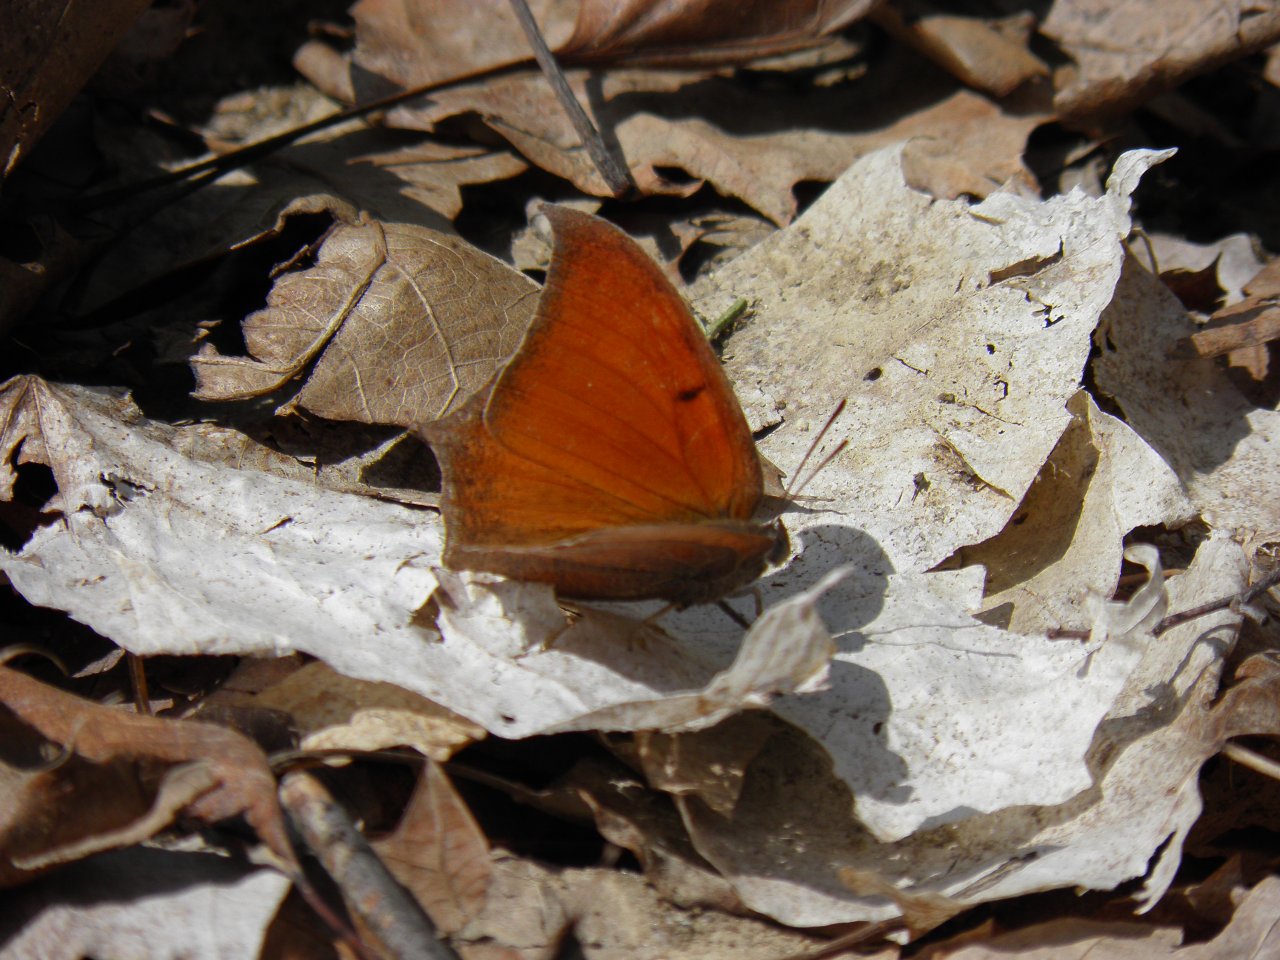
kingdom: Animalia
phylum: Arthropoda
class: Insecta
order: Lepidoptera
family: Nymphalidae
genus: Anaea
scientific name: Anaea andria
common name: Goatweed Leafwing
